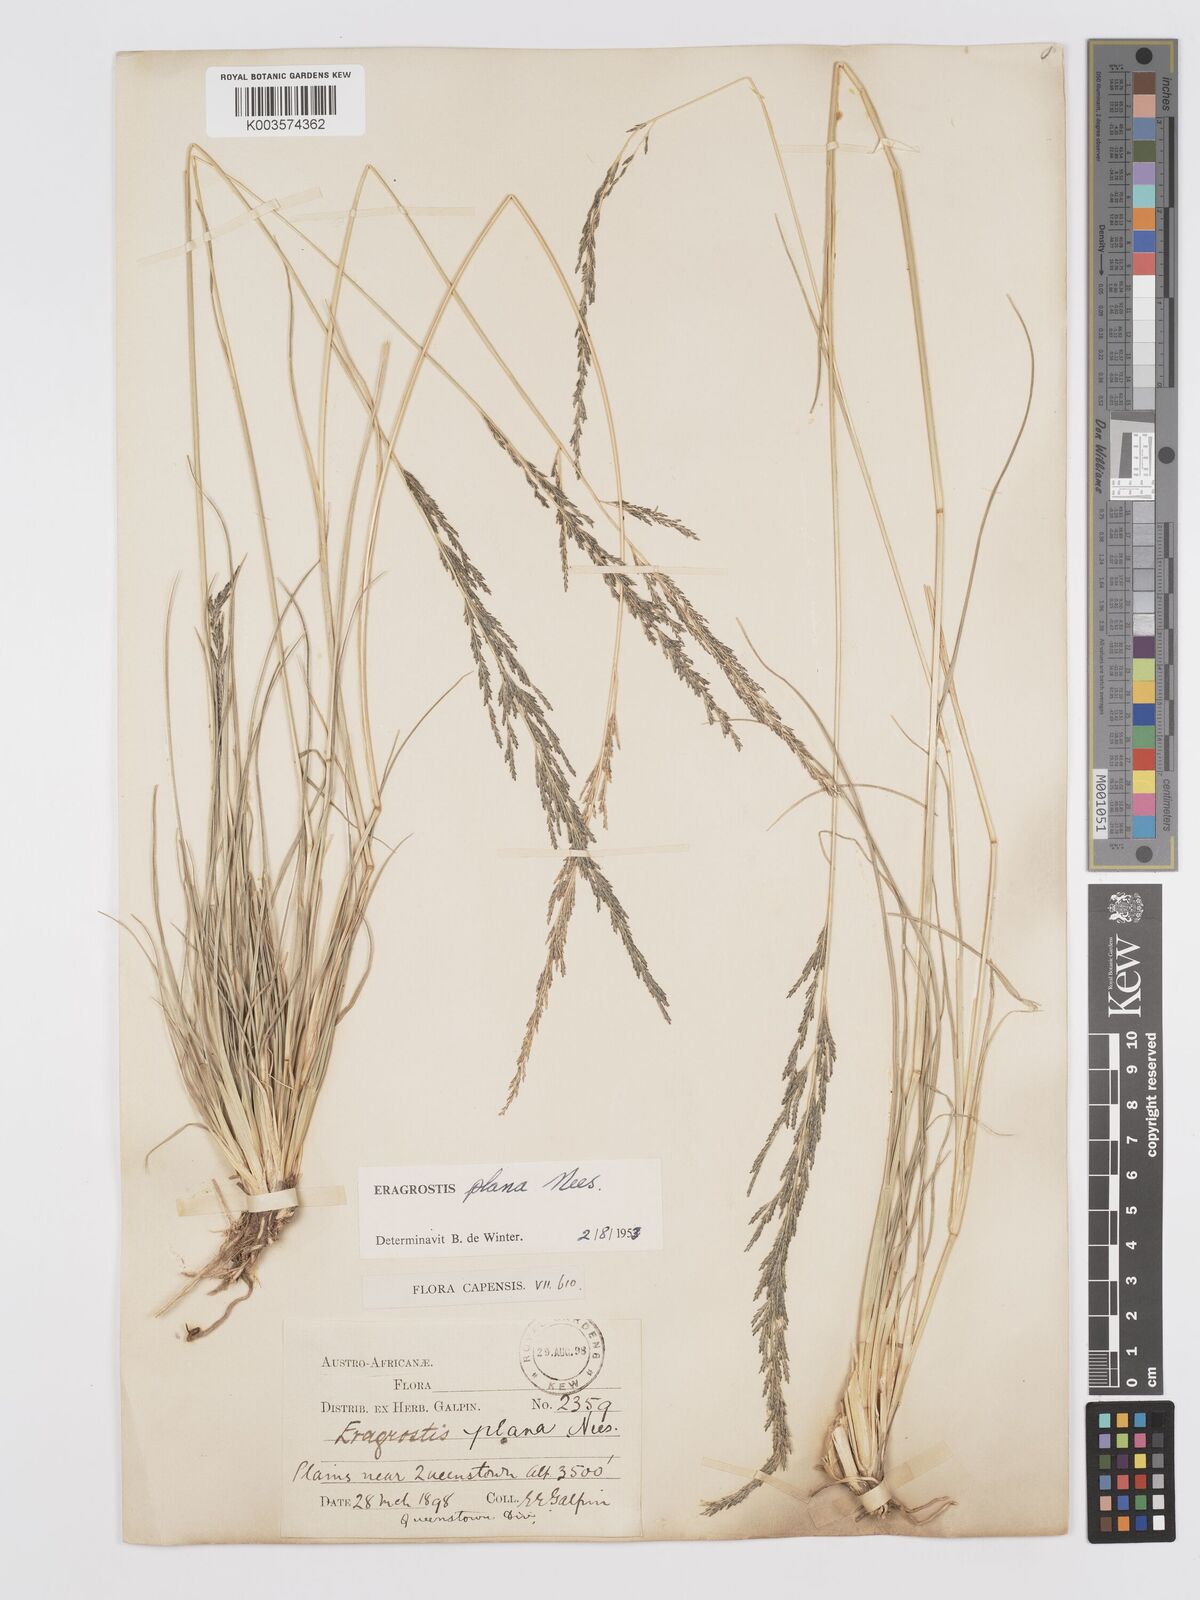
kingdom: Plantae
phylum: Tracheophyta
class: Liliopsida
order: Poales
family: Poaceae
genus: Eragrostis
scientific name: Eragrostis plana
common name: South african lovegrass
